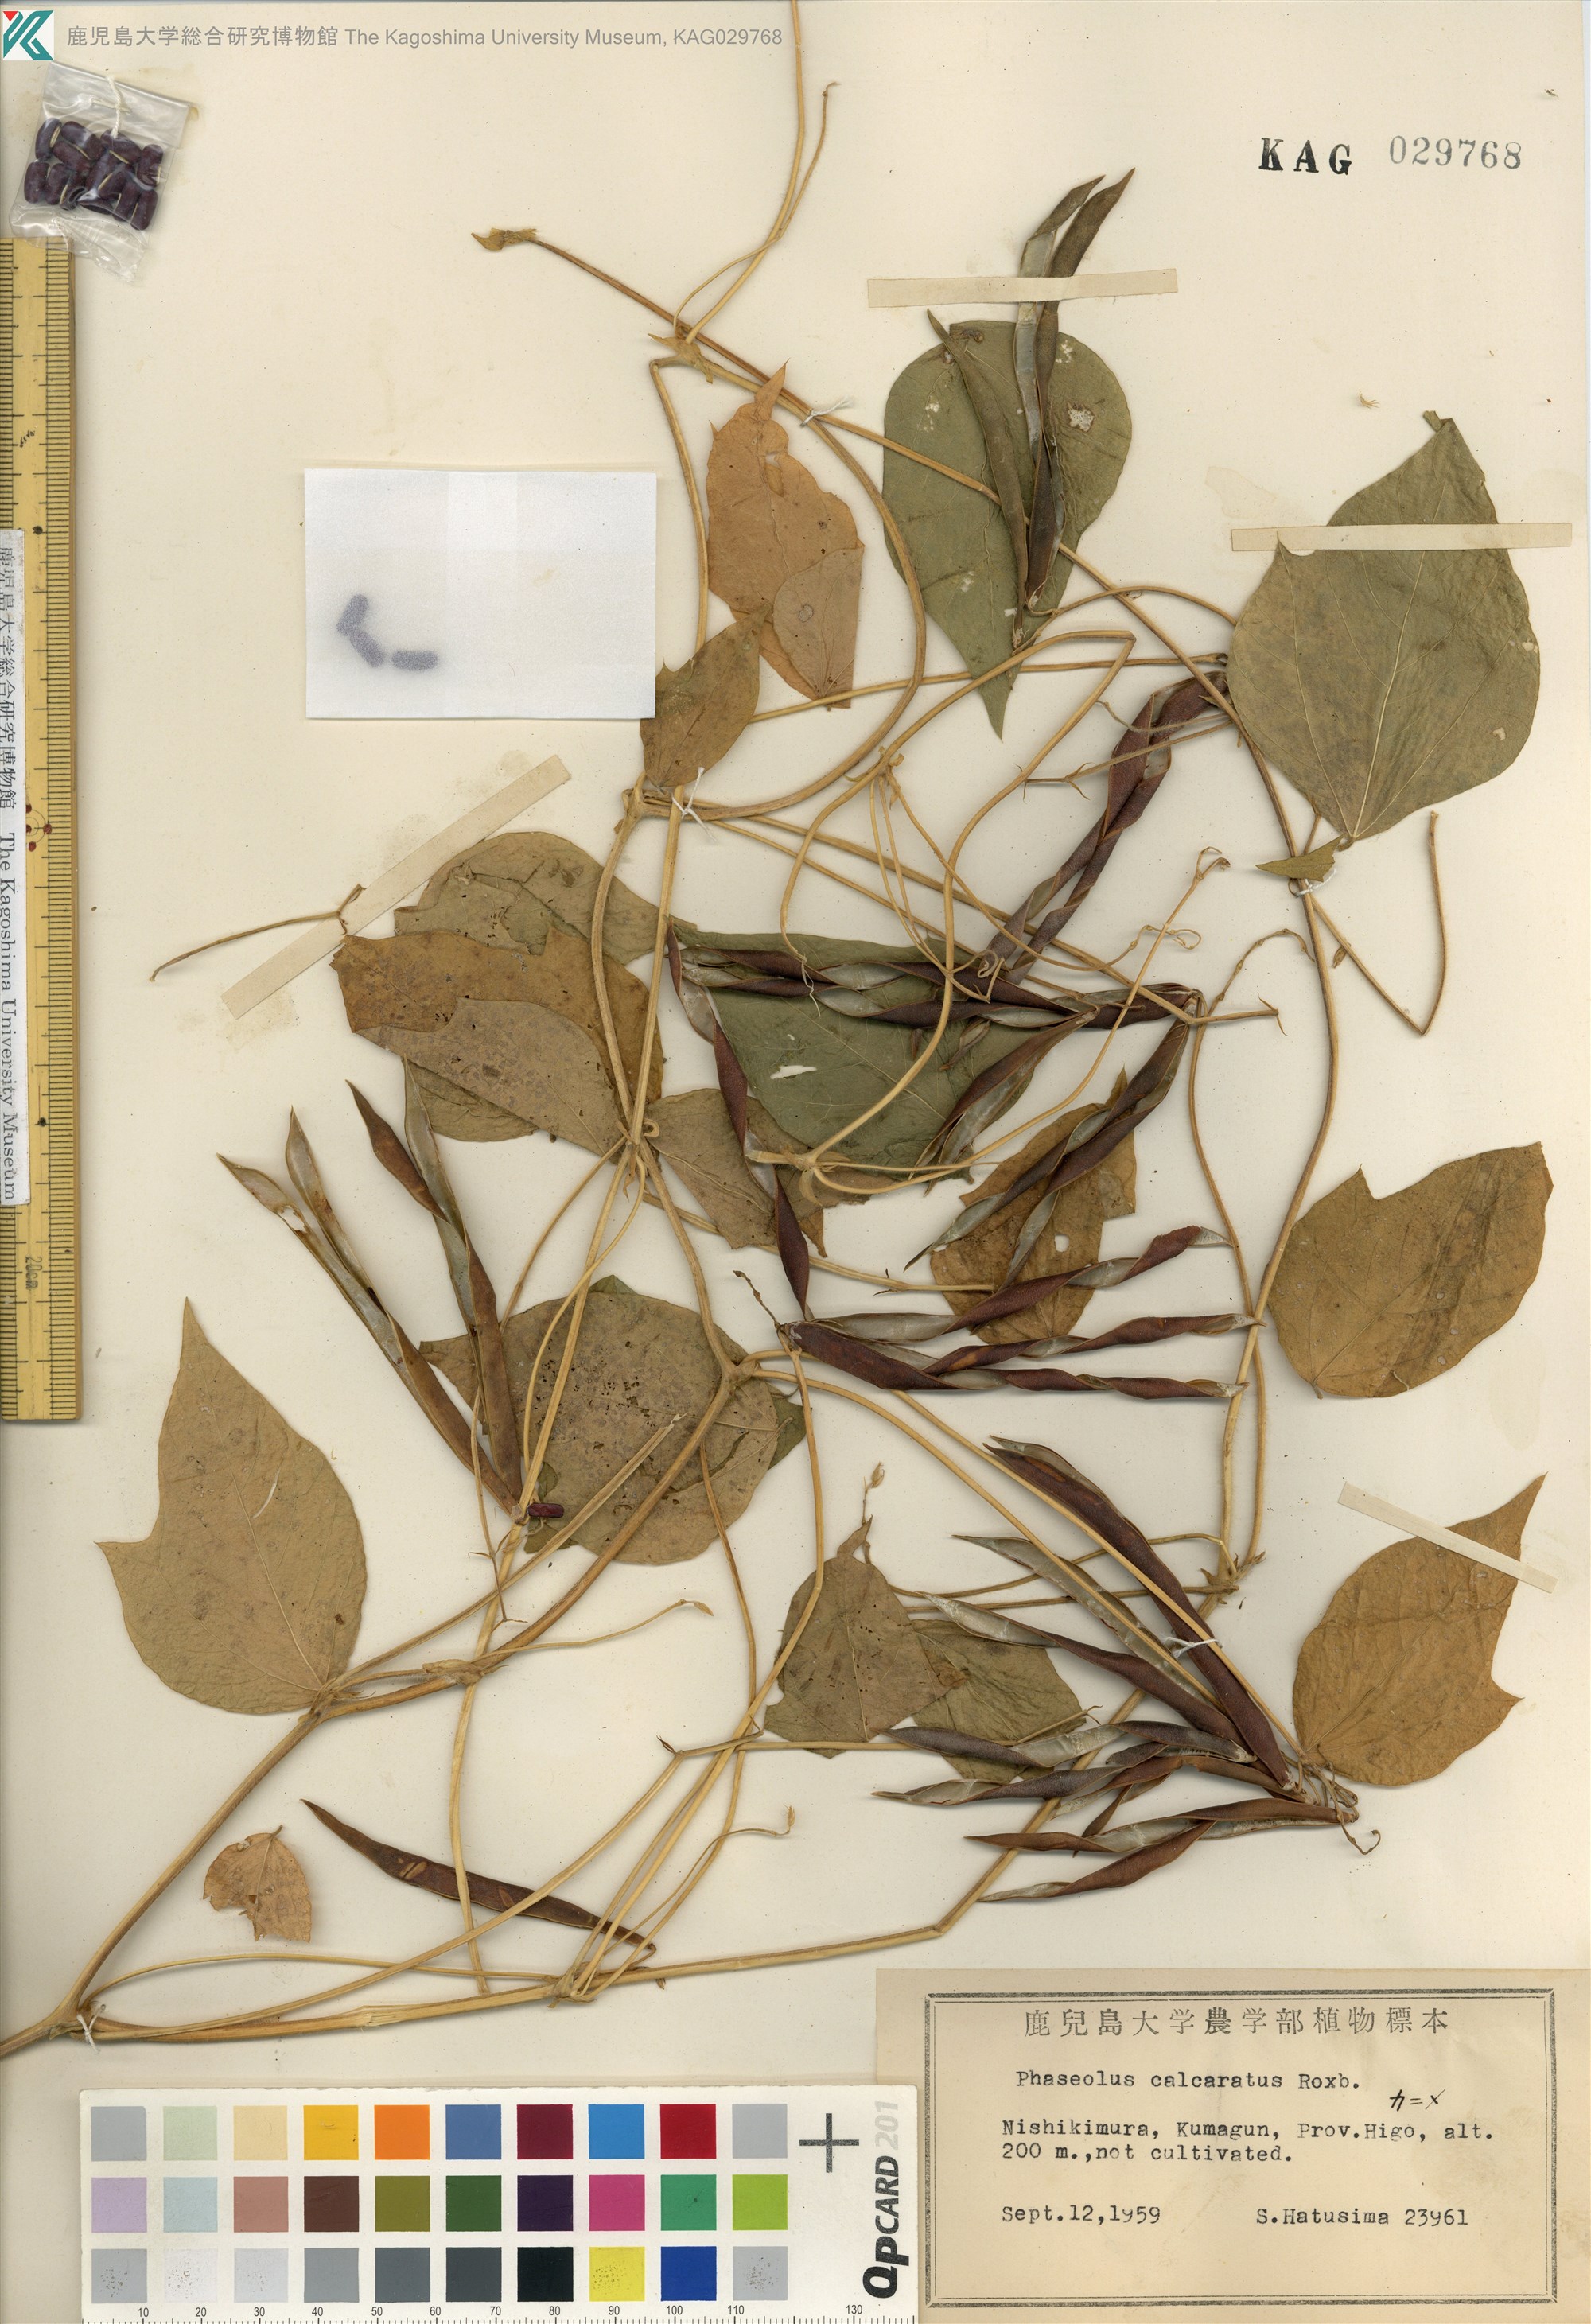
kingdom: Plantae
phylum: Tracheophyta
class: Magnoliopsida
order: Fabales
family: Fabaceae
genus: Vigna
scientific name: Vigna umbellata
